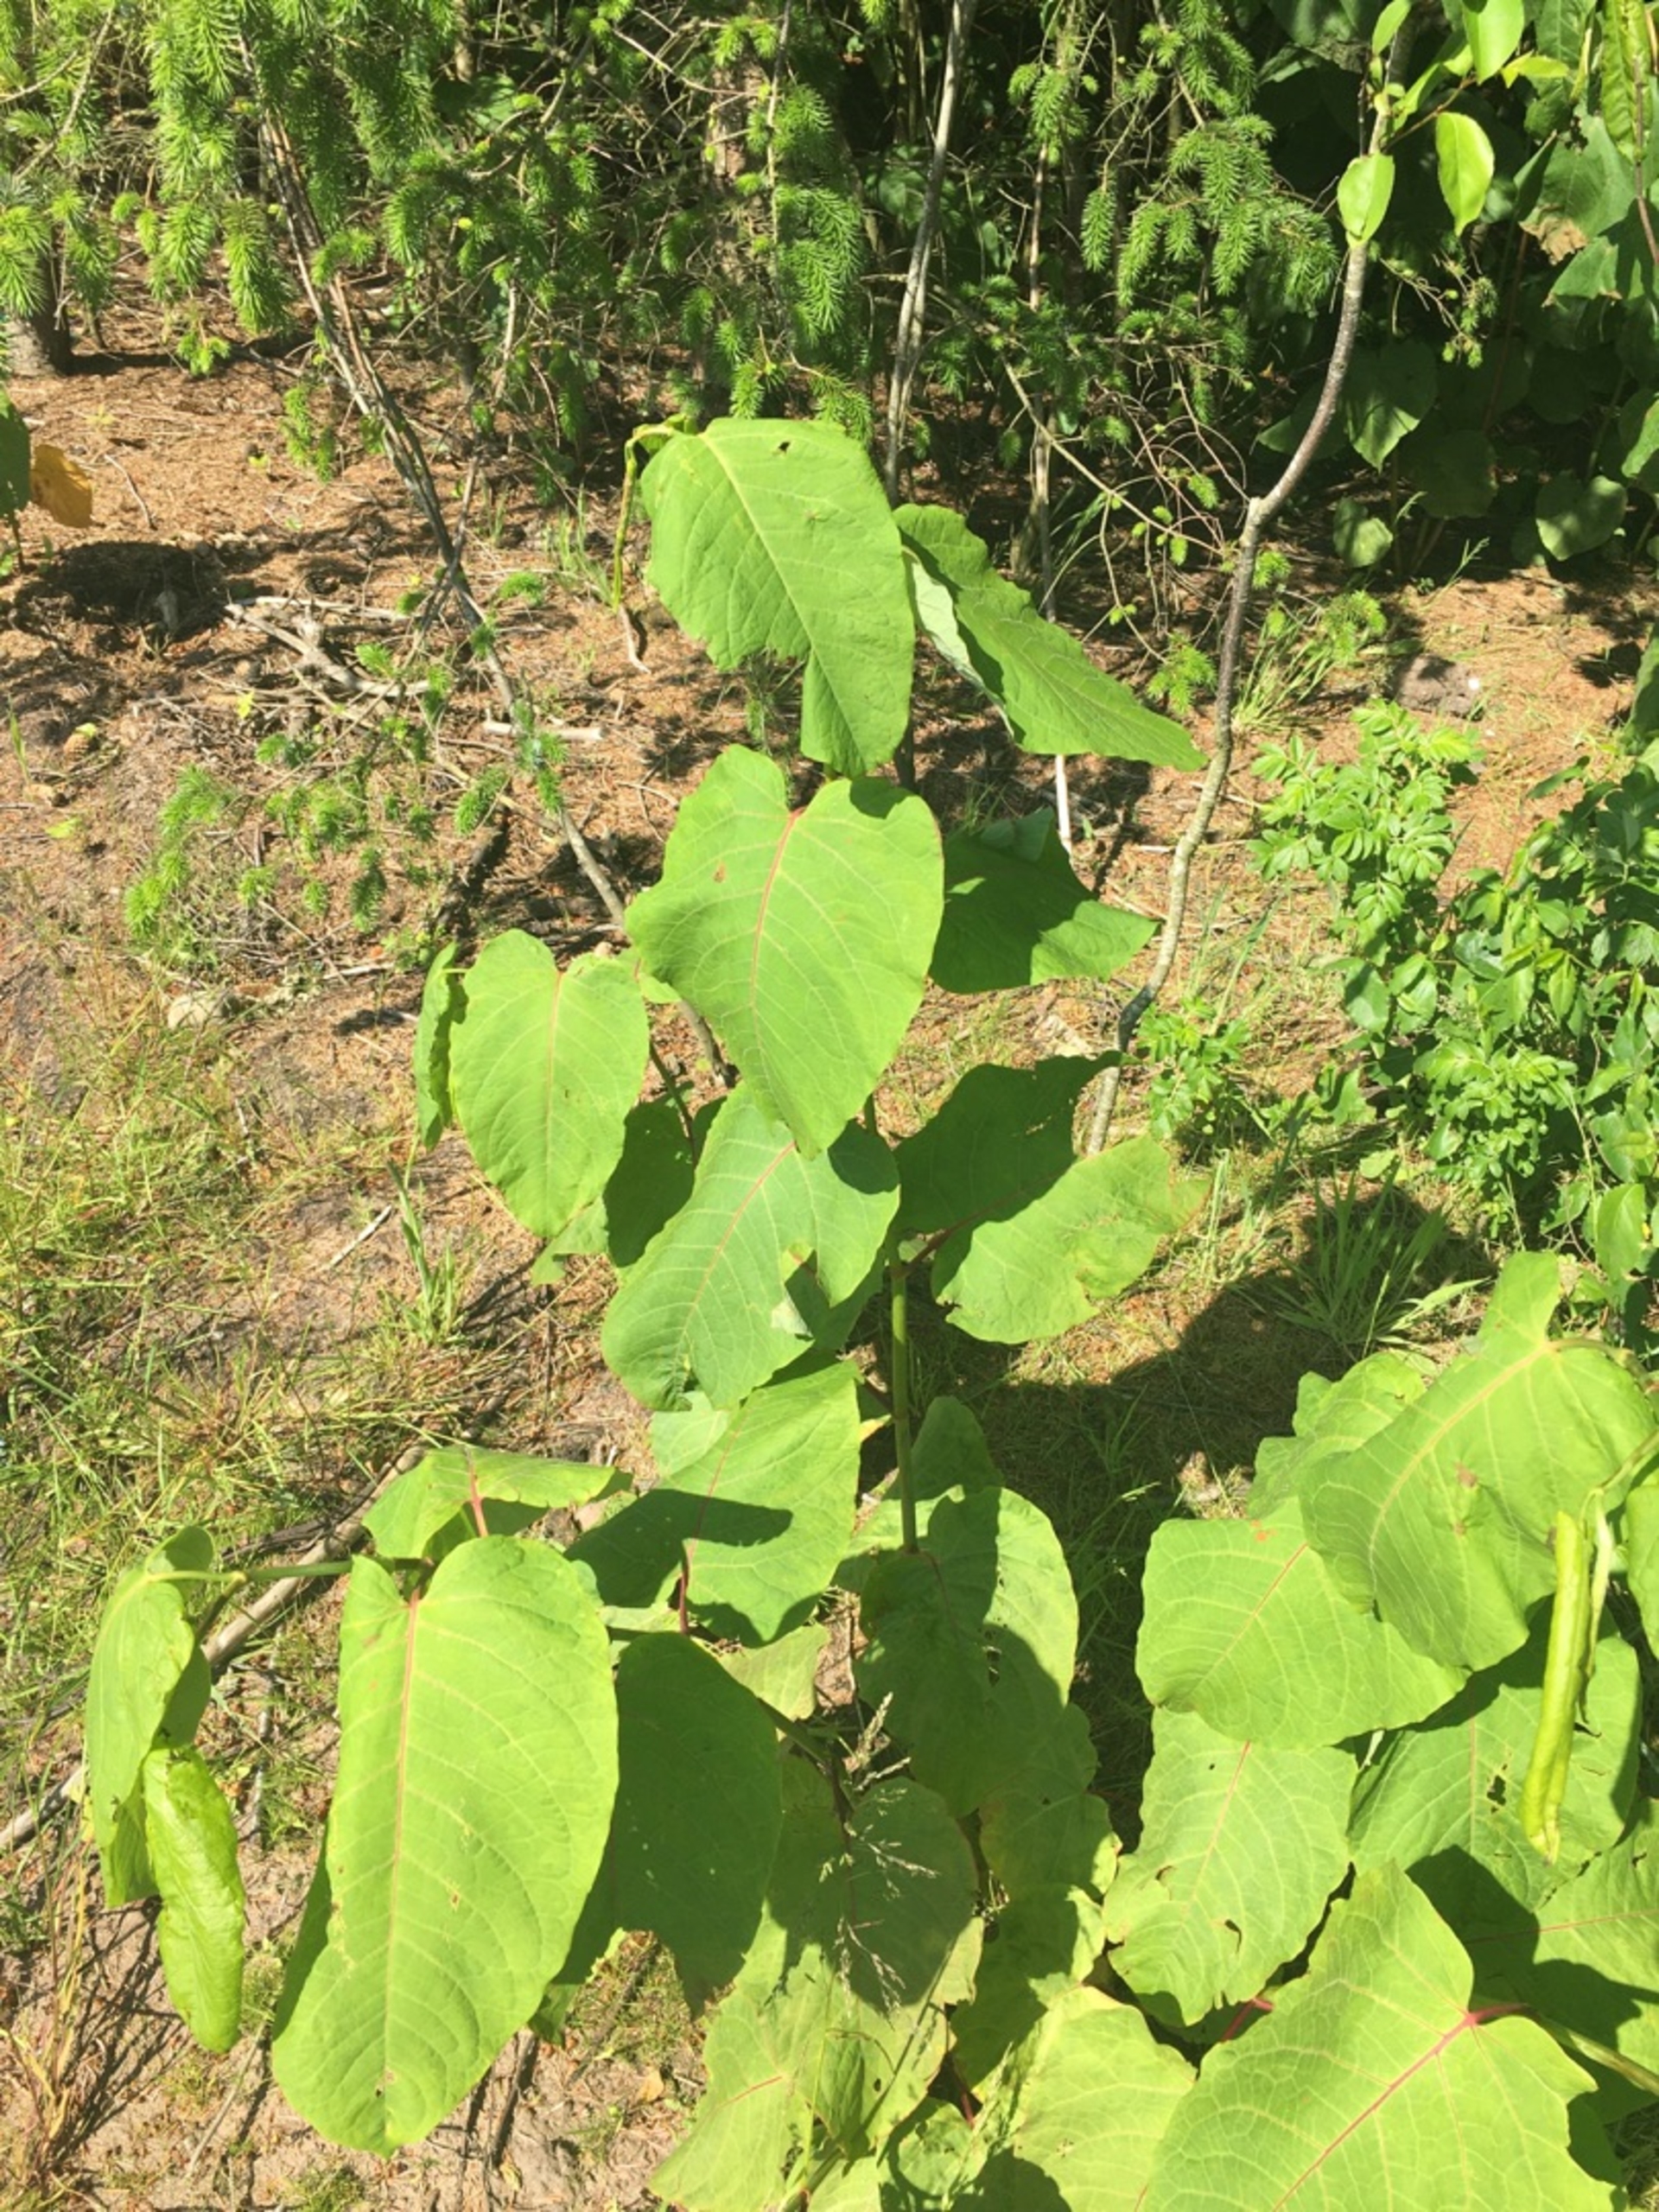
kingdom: Plantae
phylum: Tracheophyta
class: Magnoliopsida
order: Caryophyllales
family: Polygonaceae
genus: Reynoutria
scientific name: Reynoutria sachalinensis
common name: Kæmpe-pileurt
